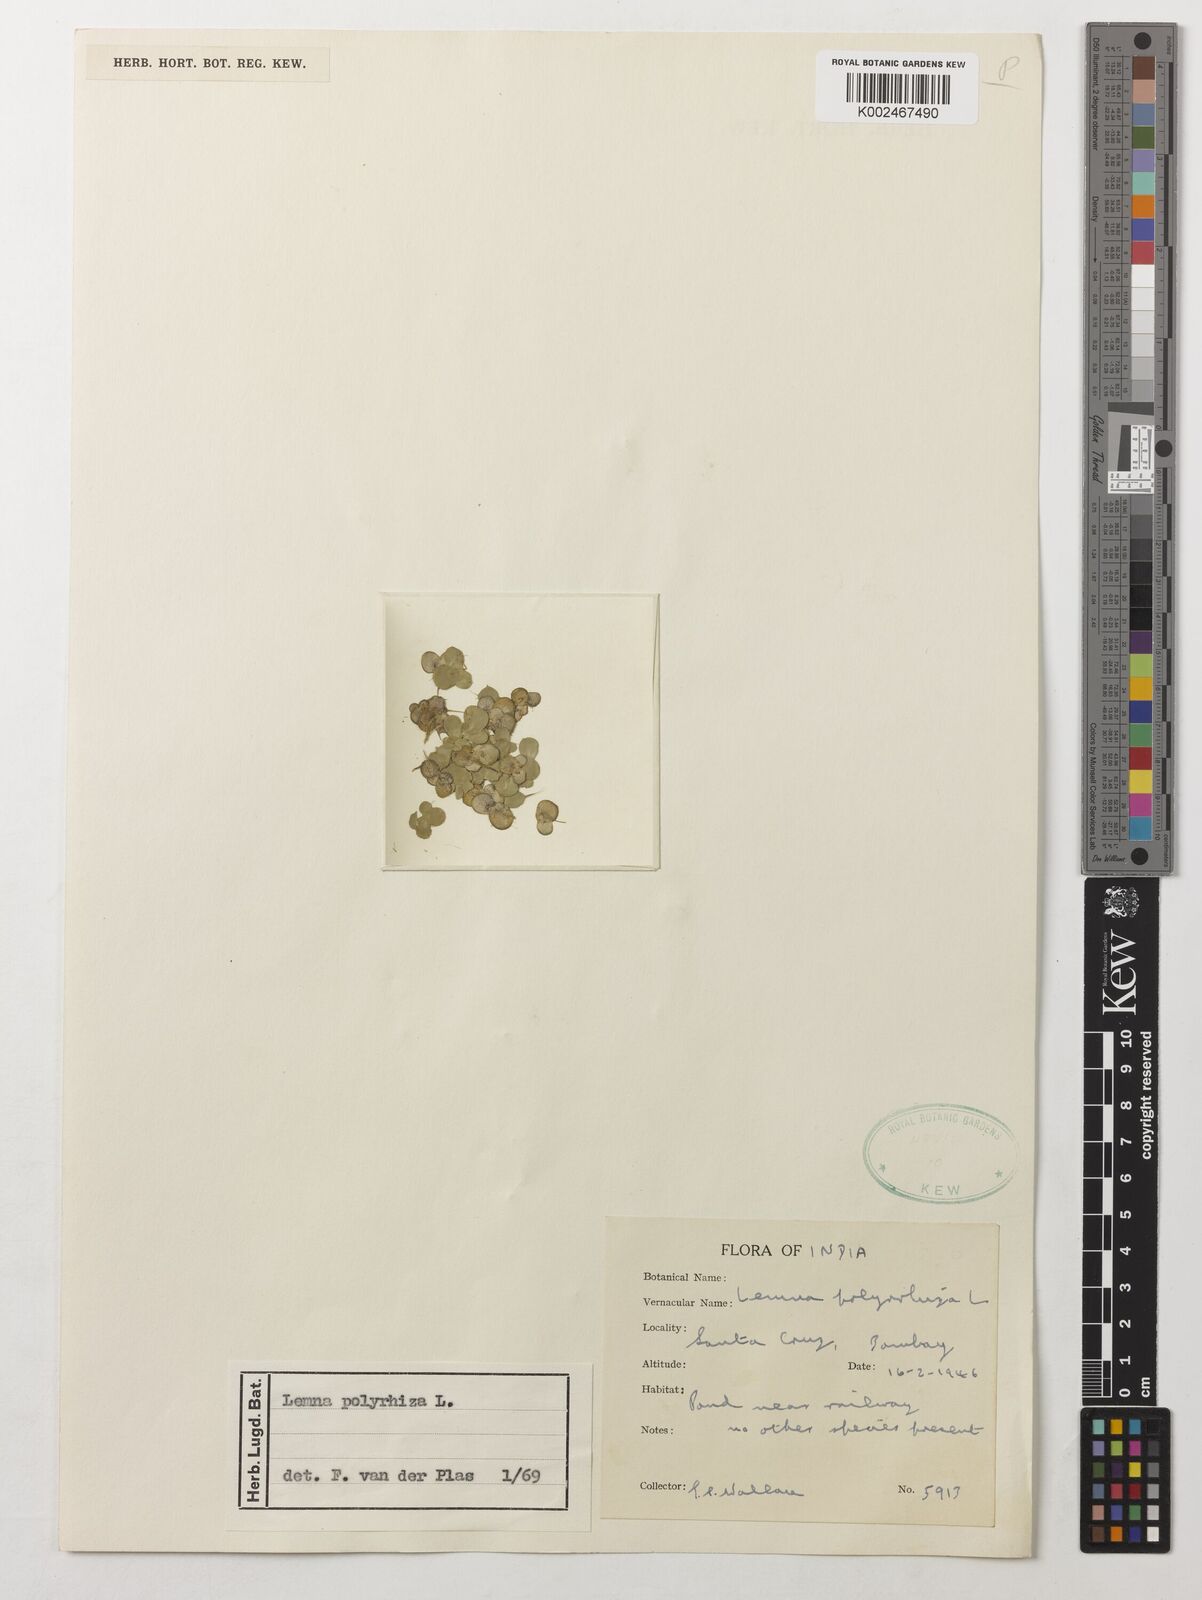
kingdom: Plantae
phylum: Tracheophyta
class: Liliopsida
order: Alismatales
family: Araceae
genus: Spirodela
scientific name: Spirodela polyrhiza
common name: Great duckweed
